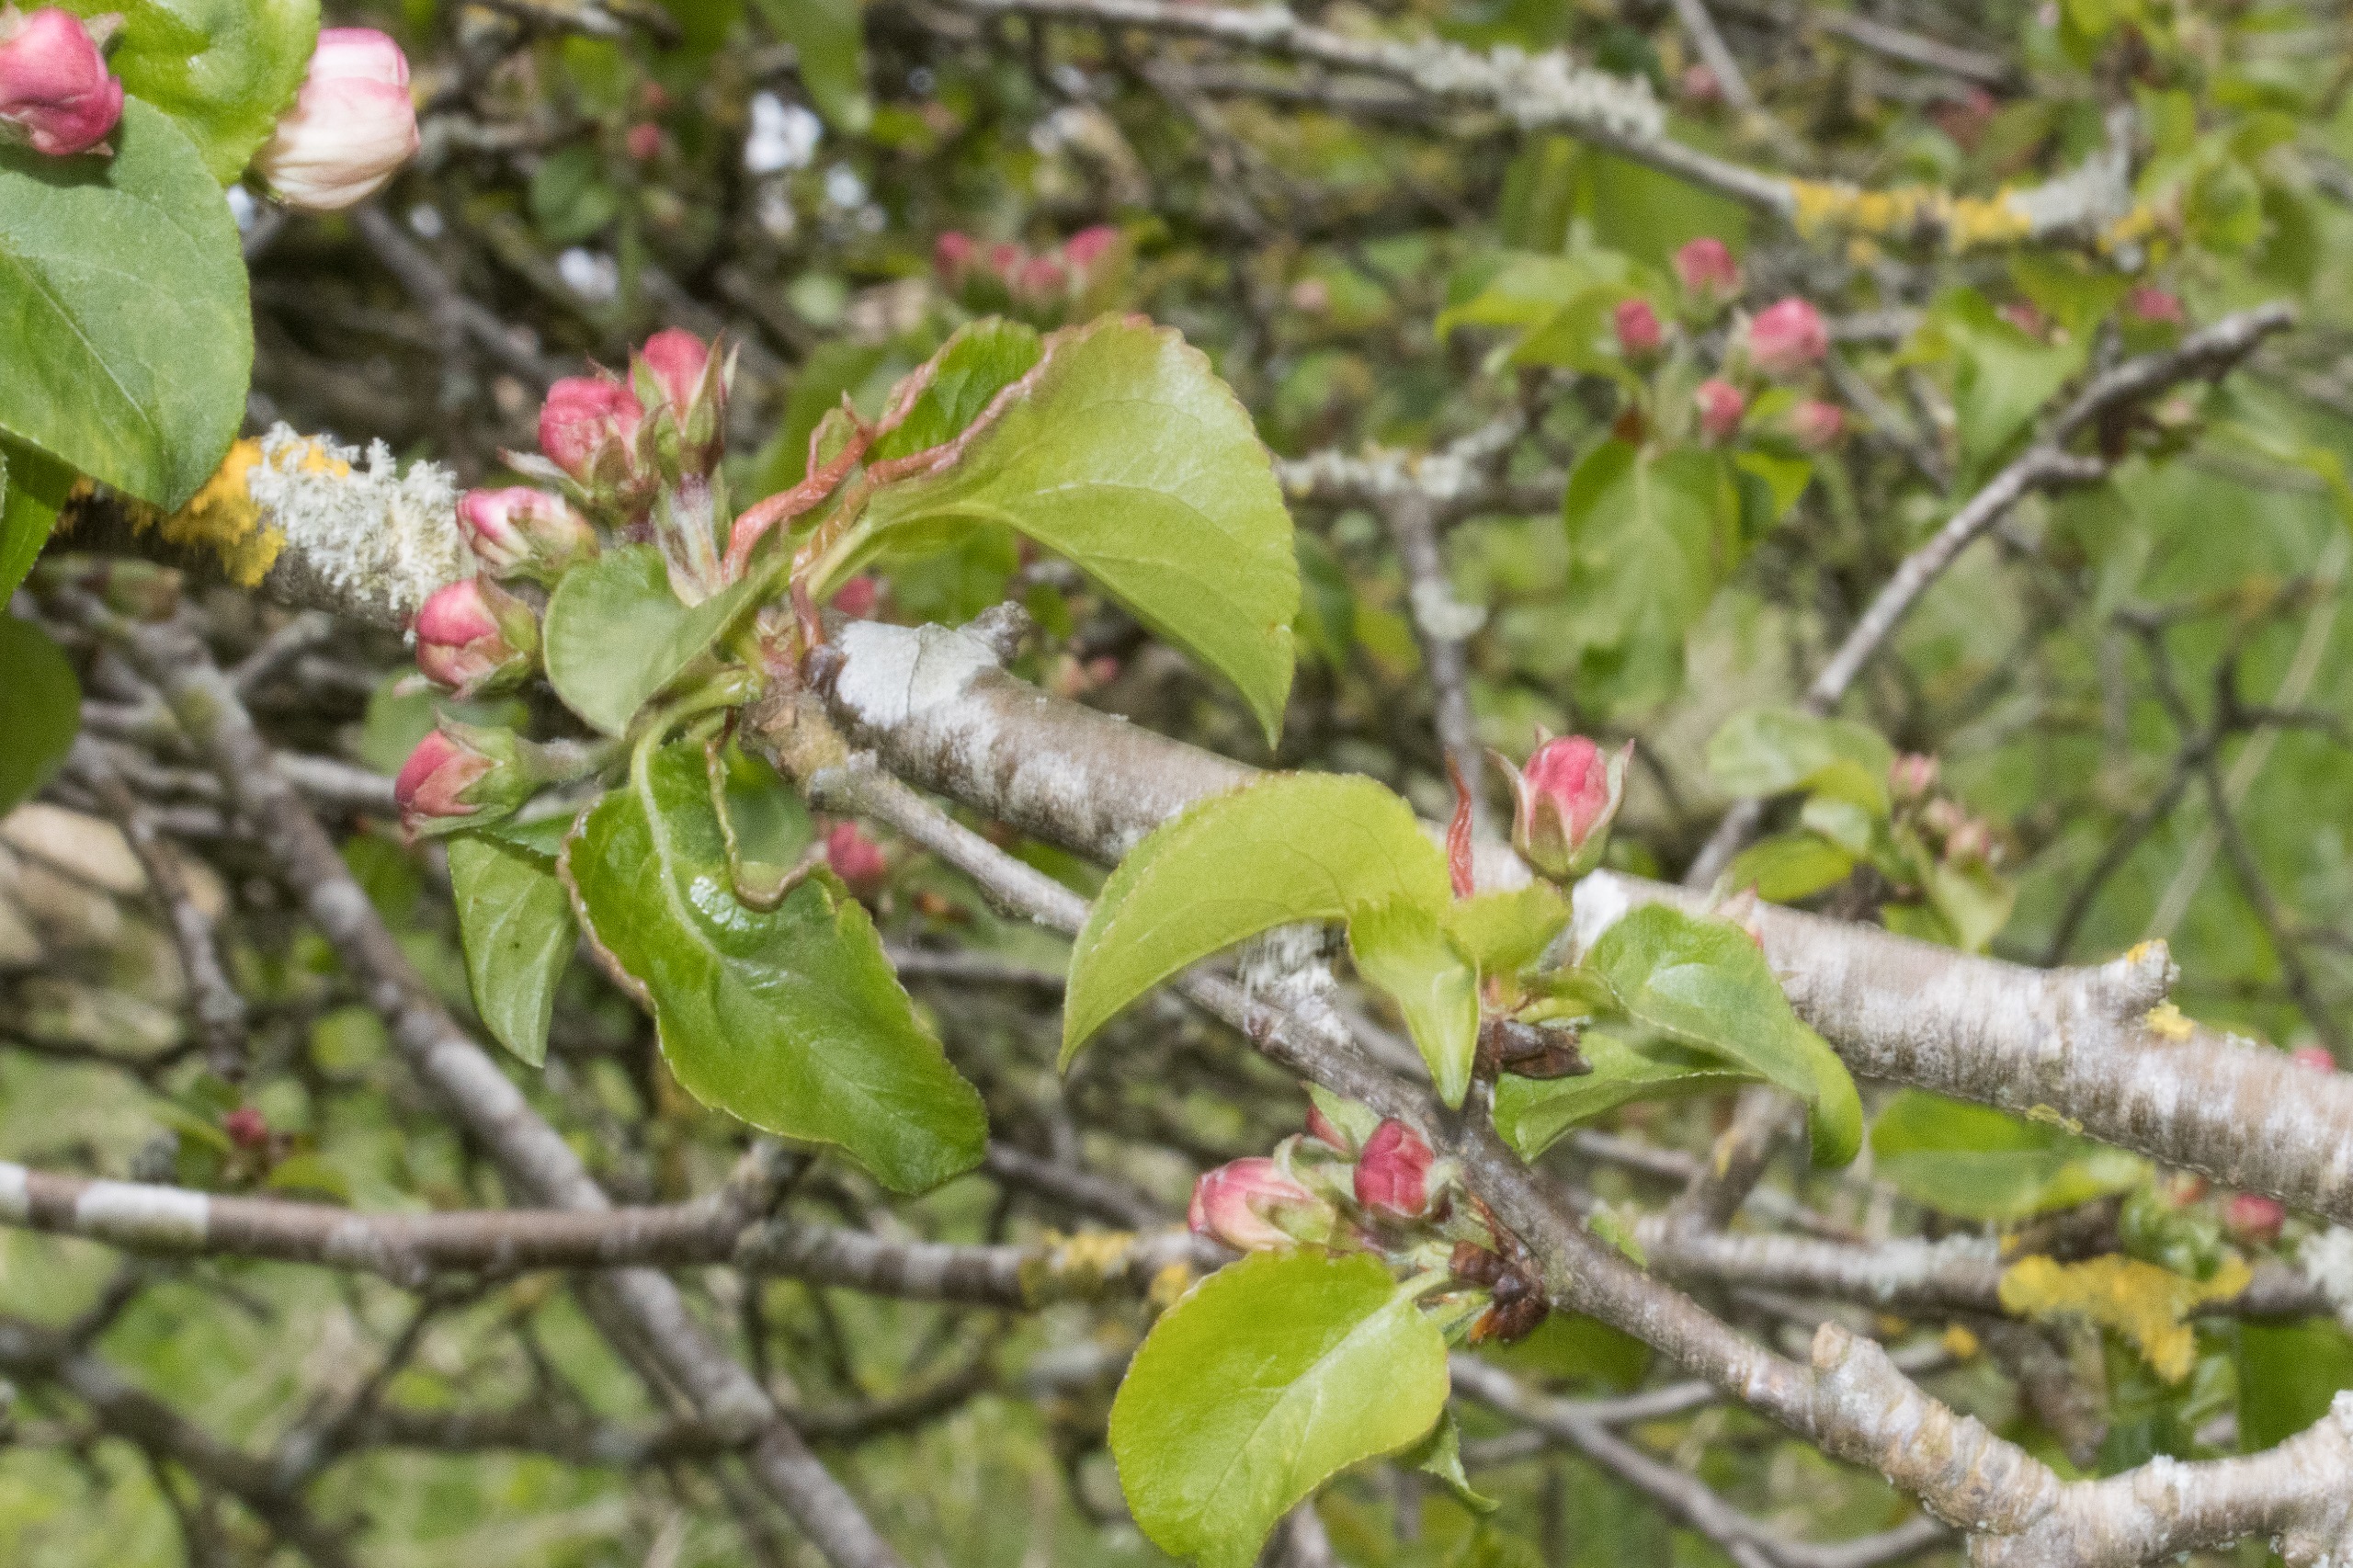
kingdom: Plantae
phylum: Tracheophyta
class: Magnoliopsida
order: Rosales
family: Rosaceae
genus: Malus
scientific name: Malus sylvestris
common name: Skov-æble
